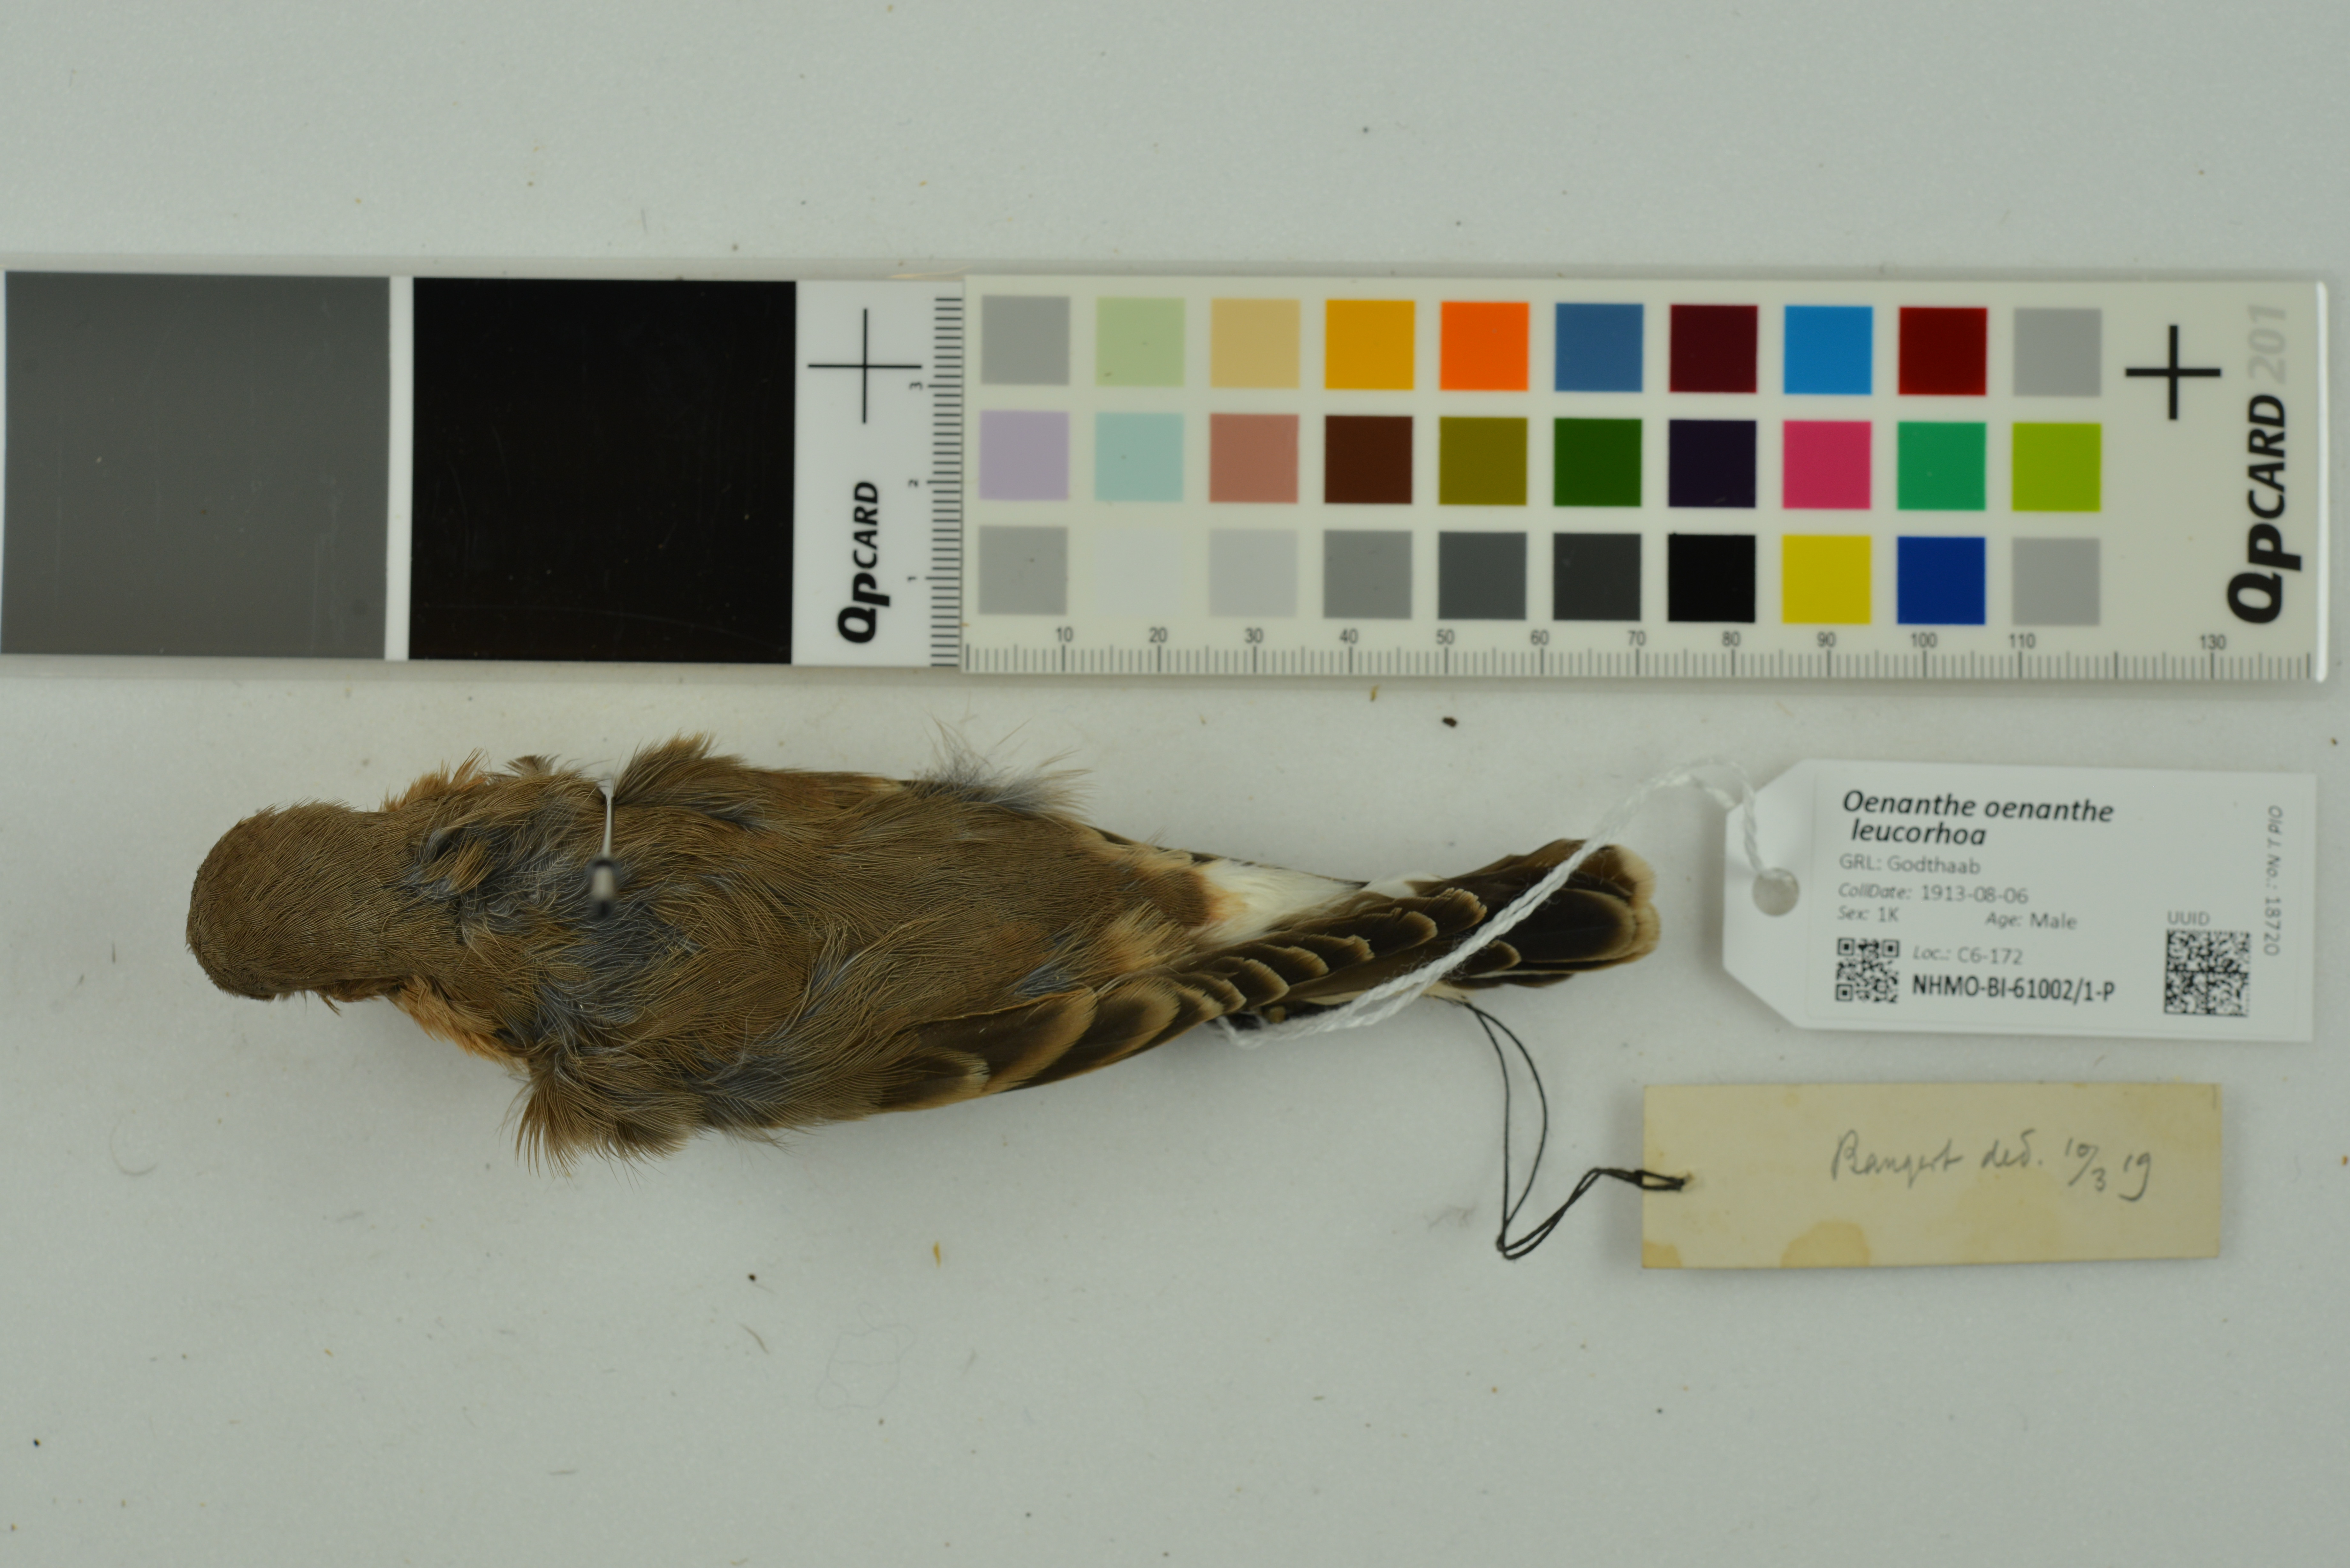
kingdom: Animalia
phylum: Chordata
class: Aves
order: Passeriformes
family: Muscicapidae
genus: Oenanthe
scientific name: Oenanthe oenanthe
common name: Northern wheatear
